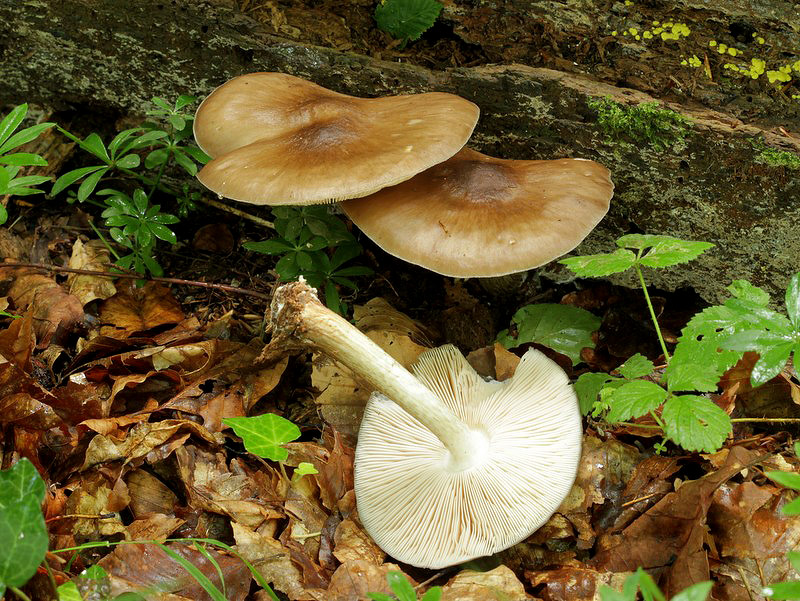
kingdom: Fungi
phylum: Basidiomycota
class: Agaricomycetes
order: Agaricales
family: Pluteaceae
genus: Pluteus
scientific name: Pluteus cervinus
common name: sodfarvet skærmhat
